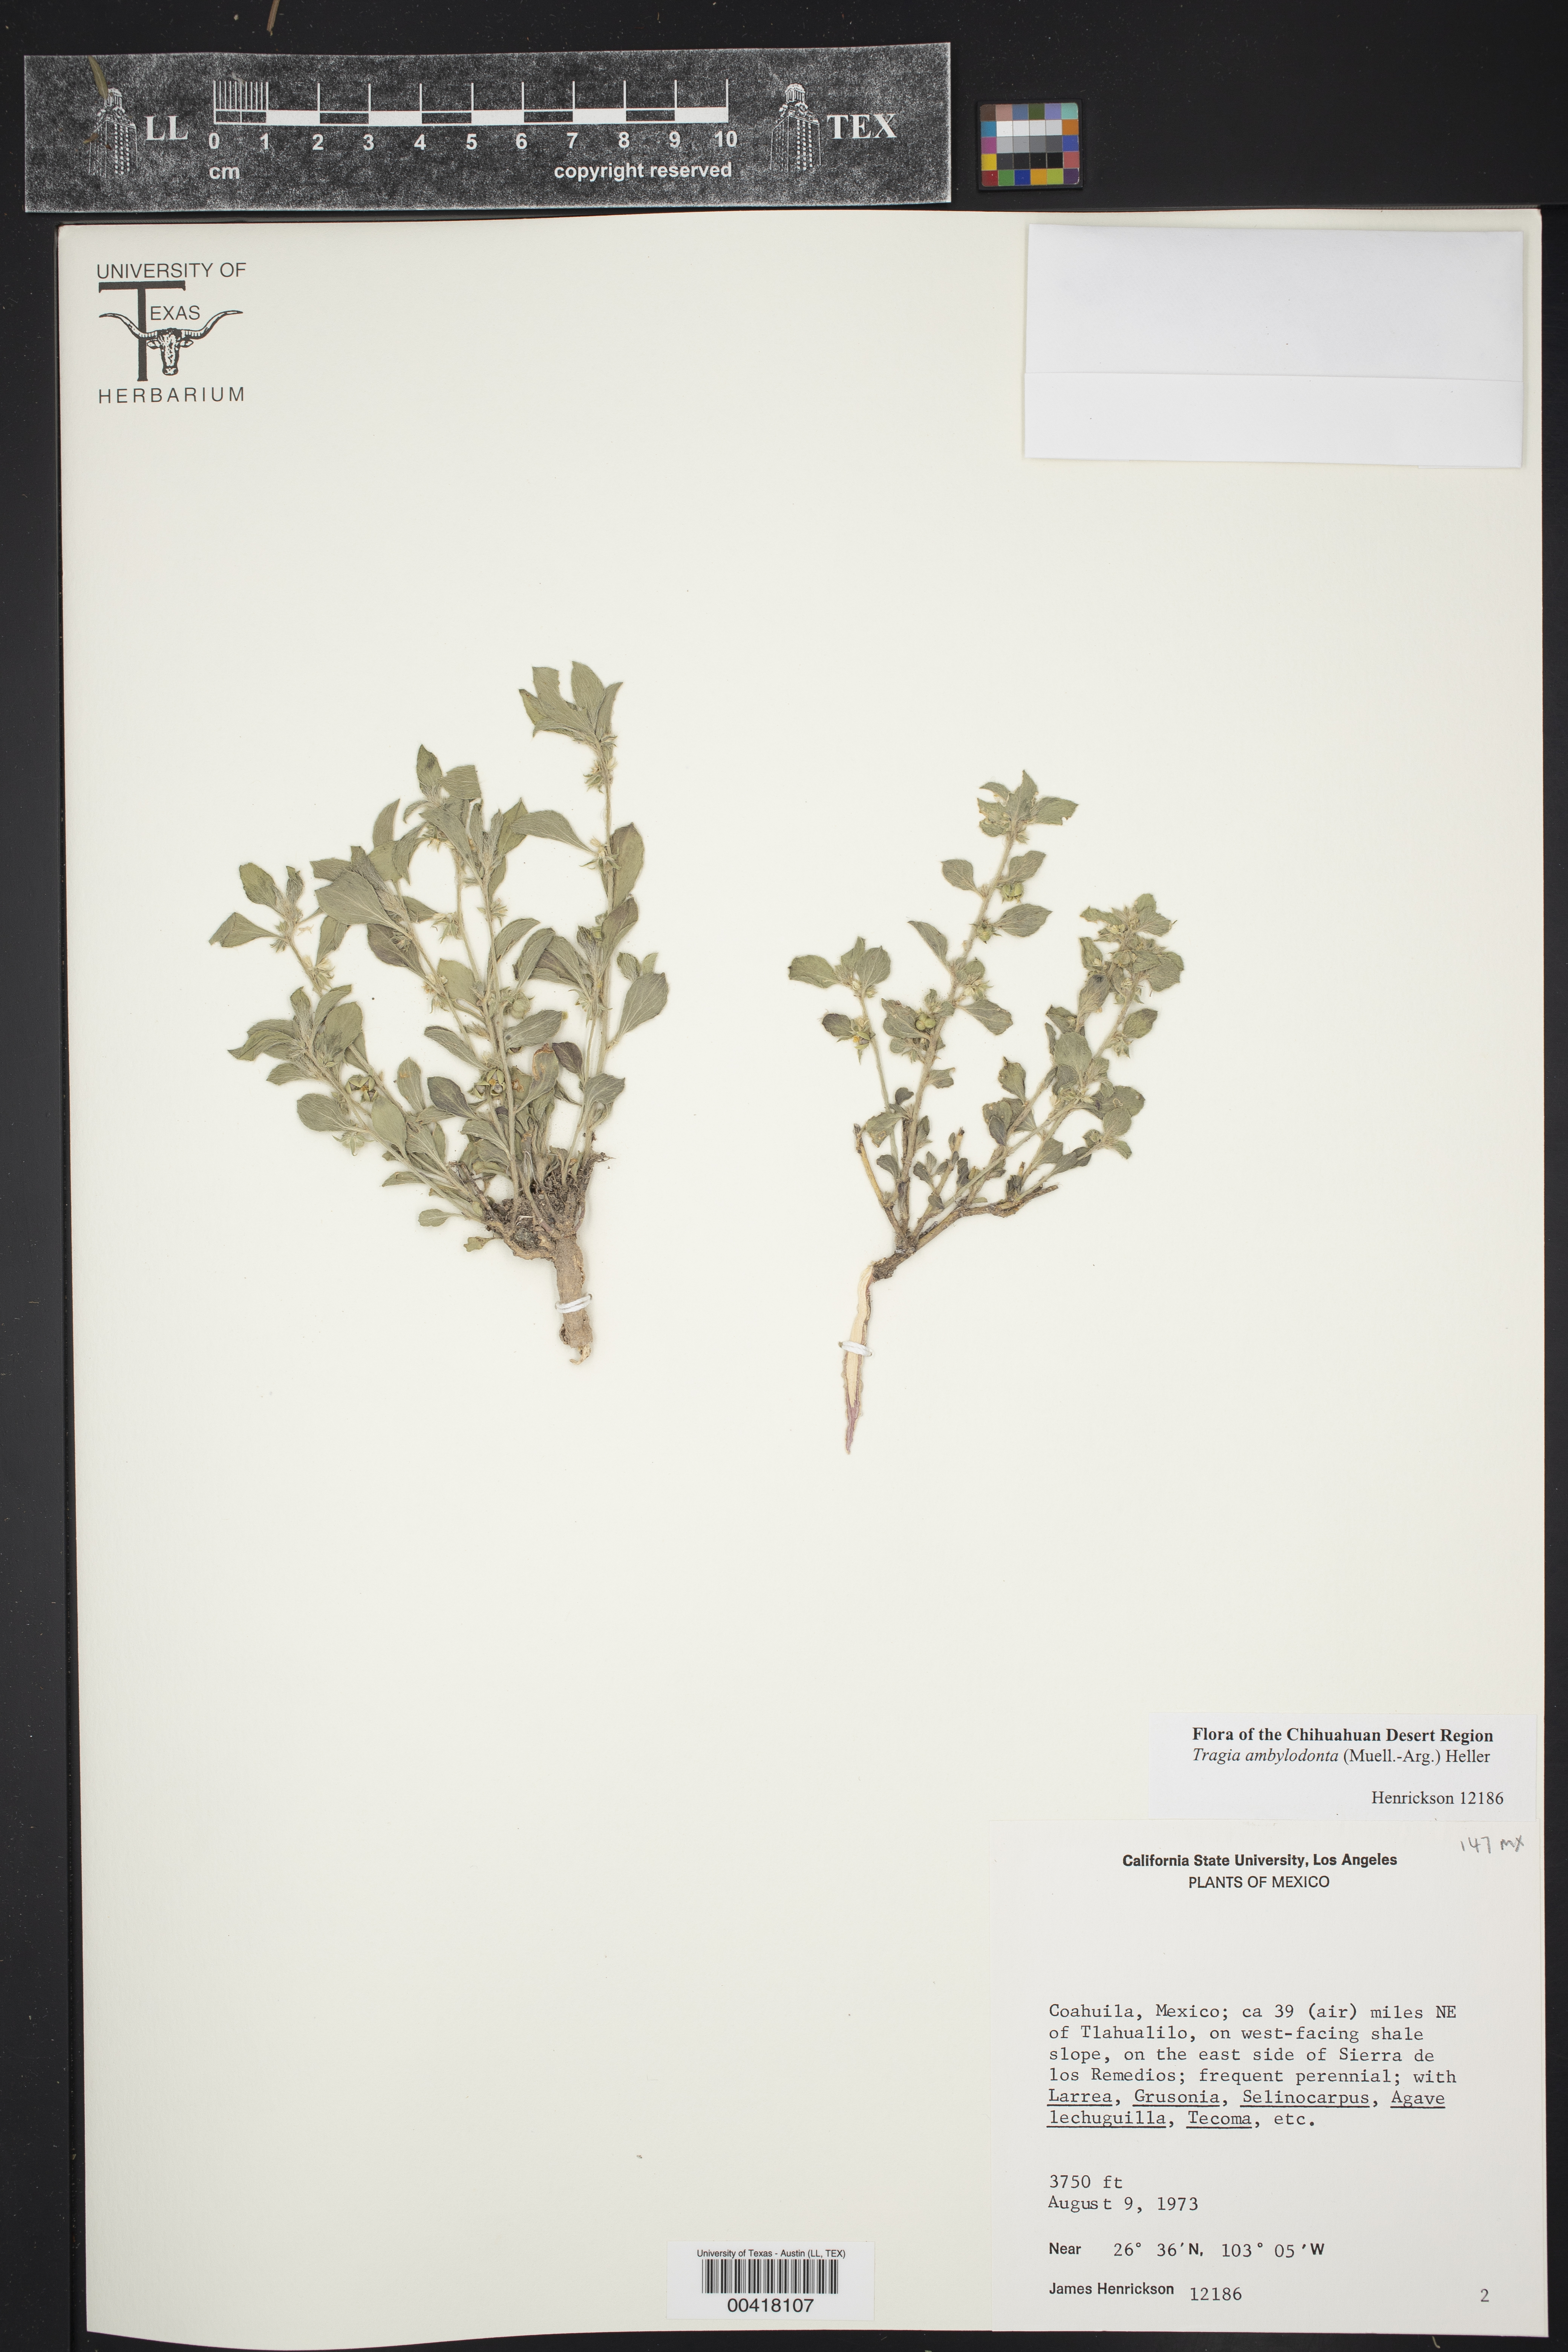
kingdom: Plantae
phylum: Tracheophyta
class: Magnoliopsida
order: Malpighiales
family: Euphorbiaceae
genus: Tragia
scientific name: Tragia amblyodonta
